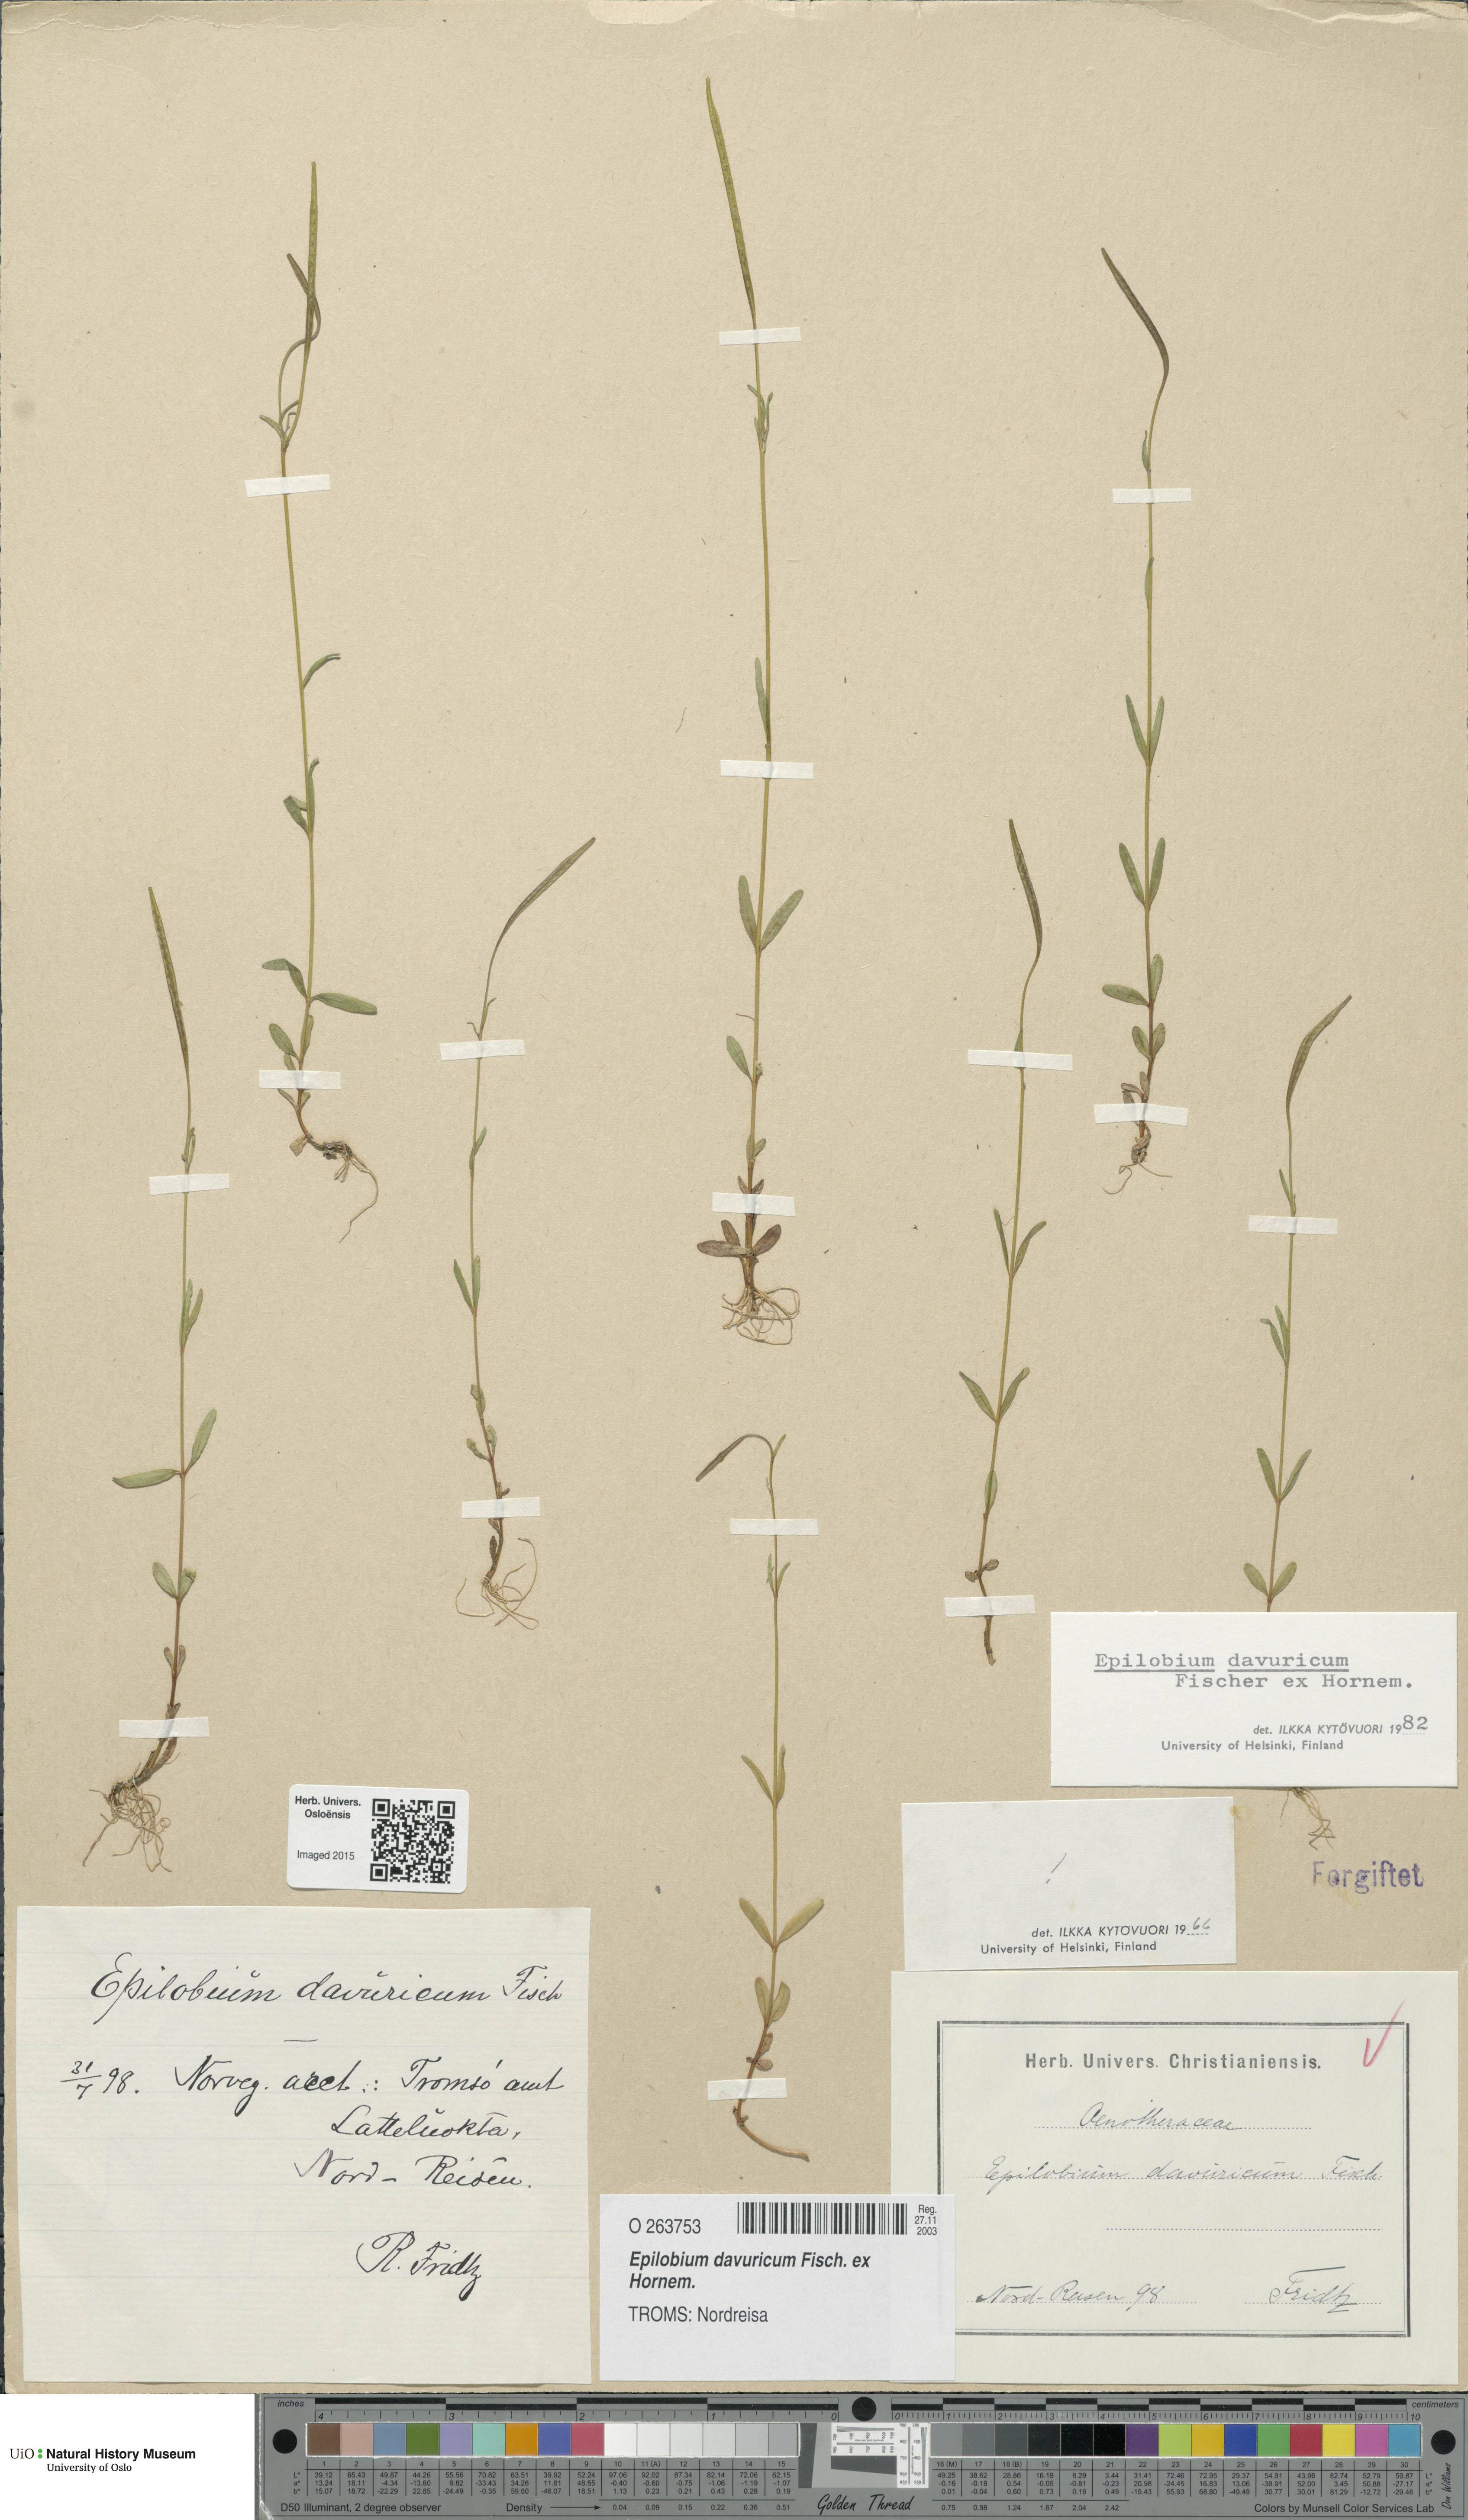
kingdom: Plantae
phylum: Tracheophyta
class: Magnoliopsida
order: Myrtales
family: Onagraceae
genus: Epilobium
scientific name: Epilobium davuricum
